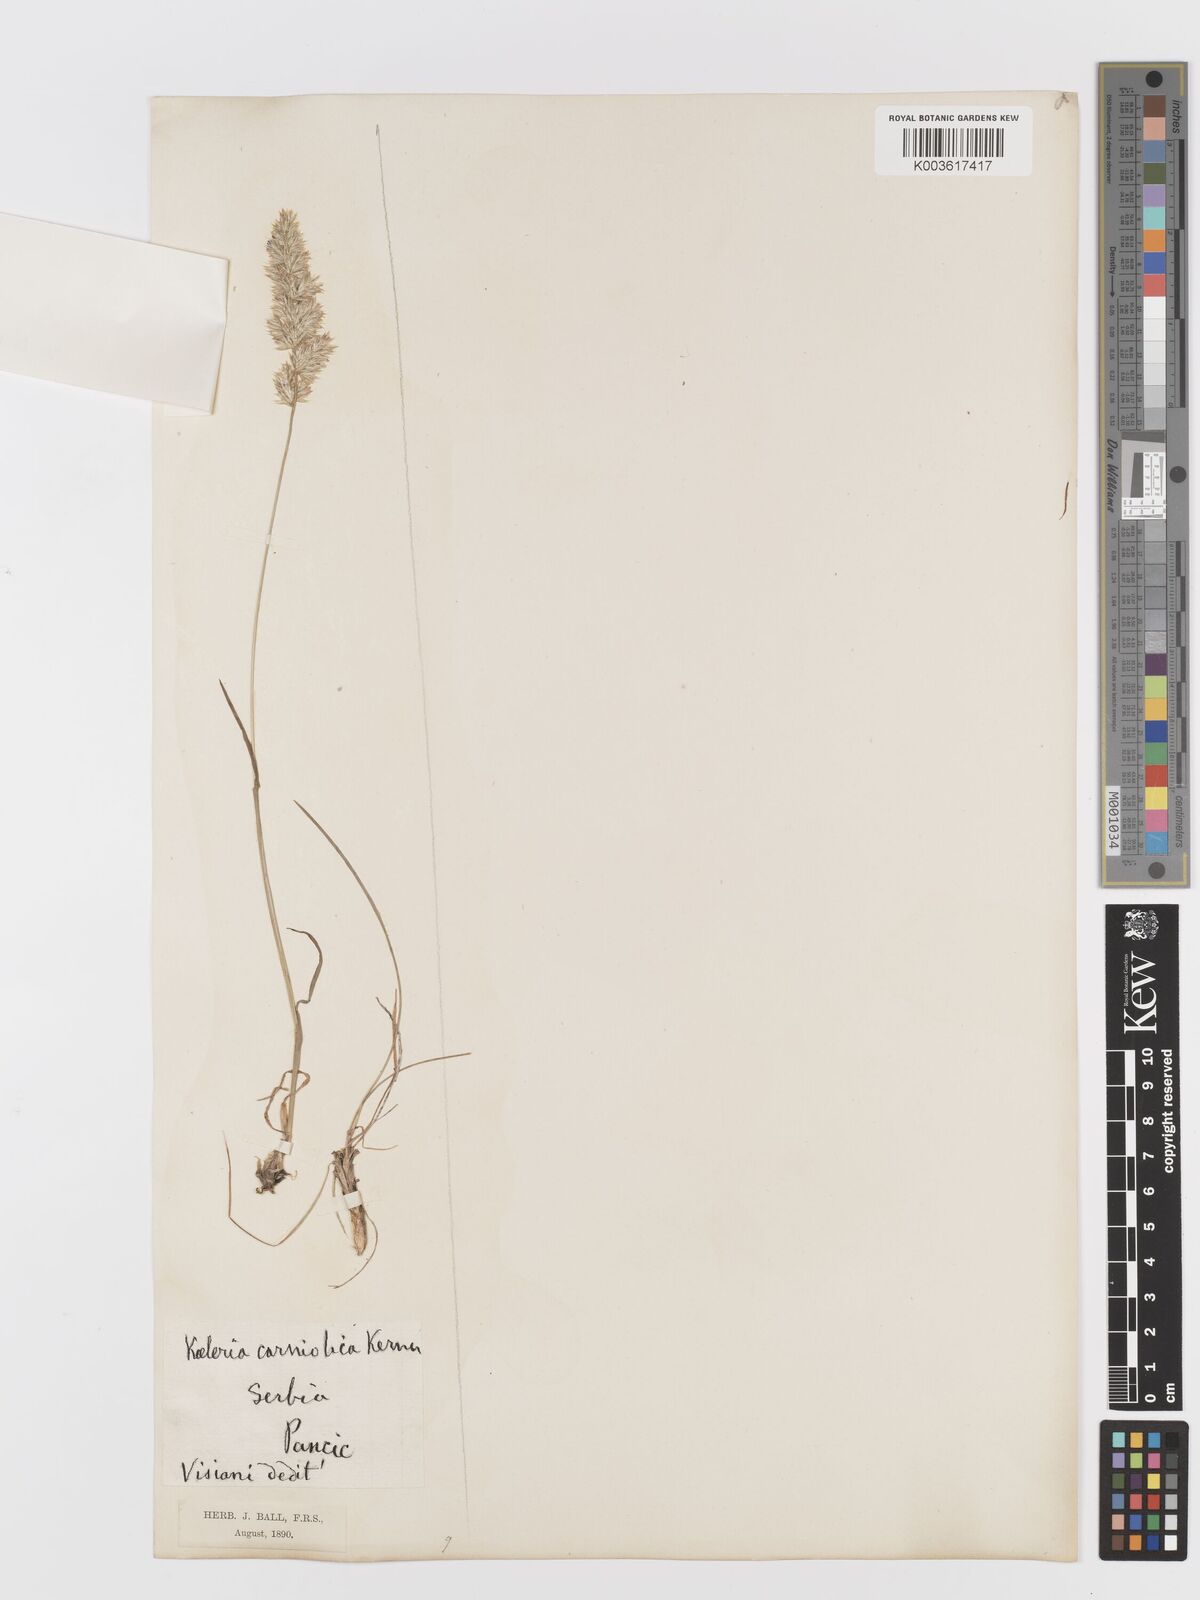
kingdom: Plantae
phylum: Tracheophyta
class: Liliopsida
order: Poales
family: Poaceae
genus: Koeleria
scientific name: Koeleria nitidula
